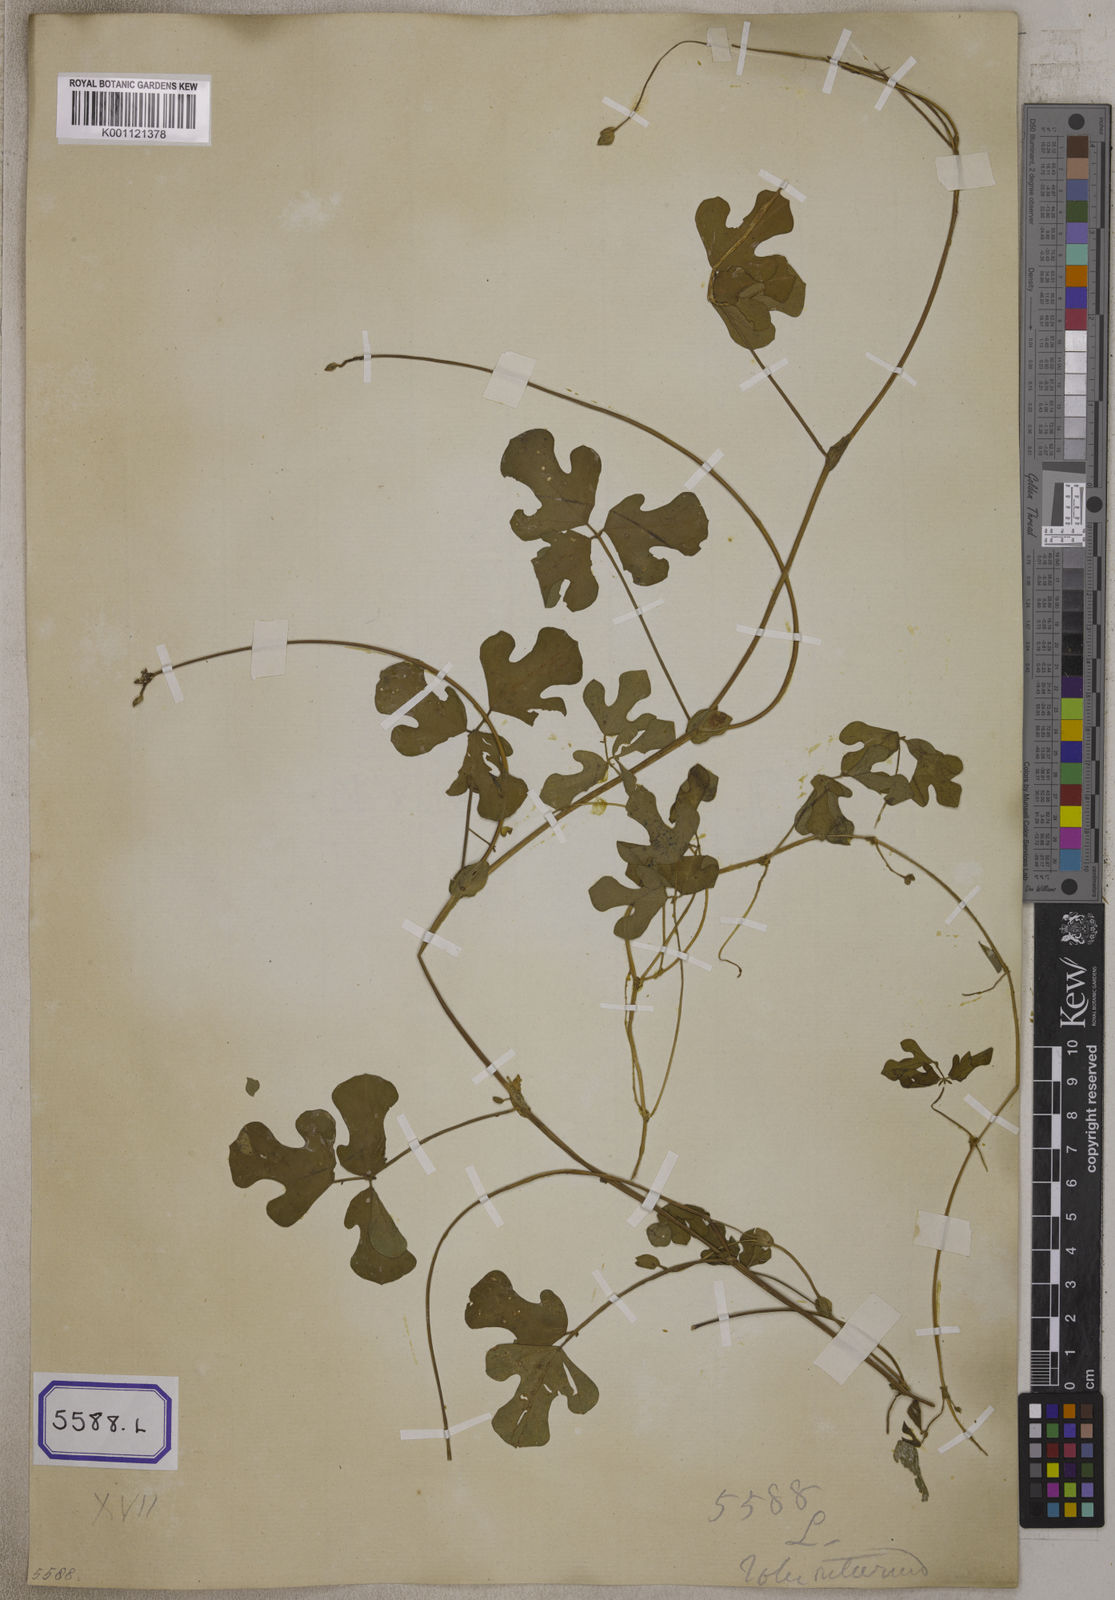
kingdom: Plantae
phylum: Tracheophyta
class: Magnoliopsida
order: Fabales
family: Fabaceae
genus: Phaseolus
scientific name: Phaseolus
